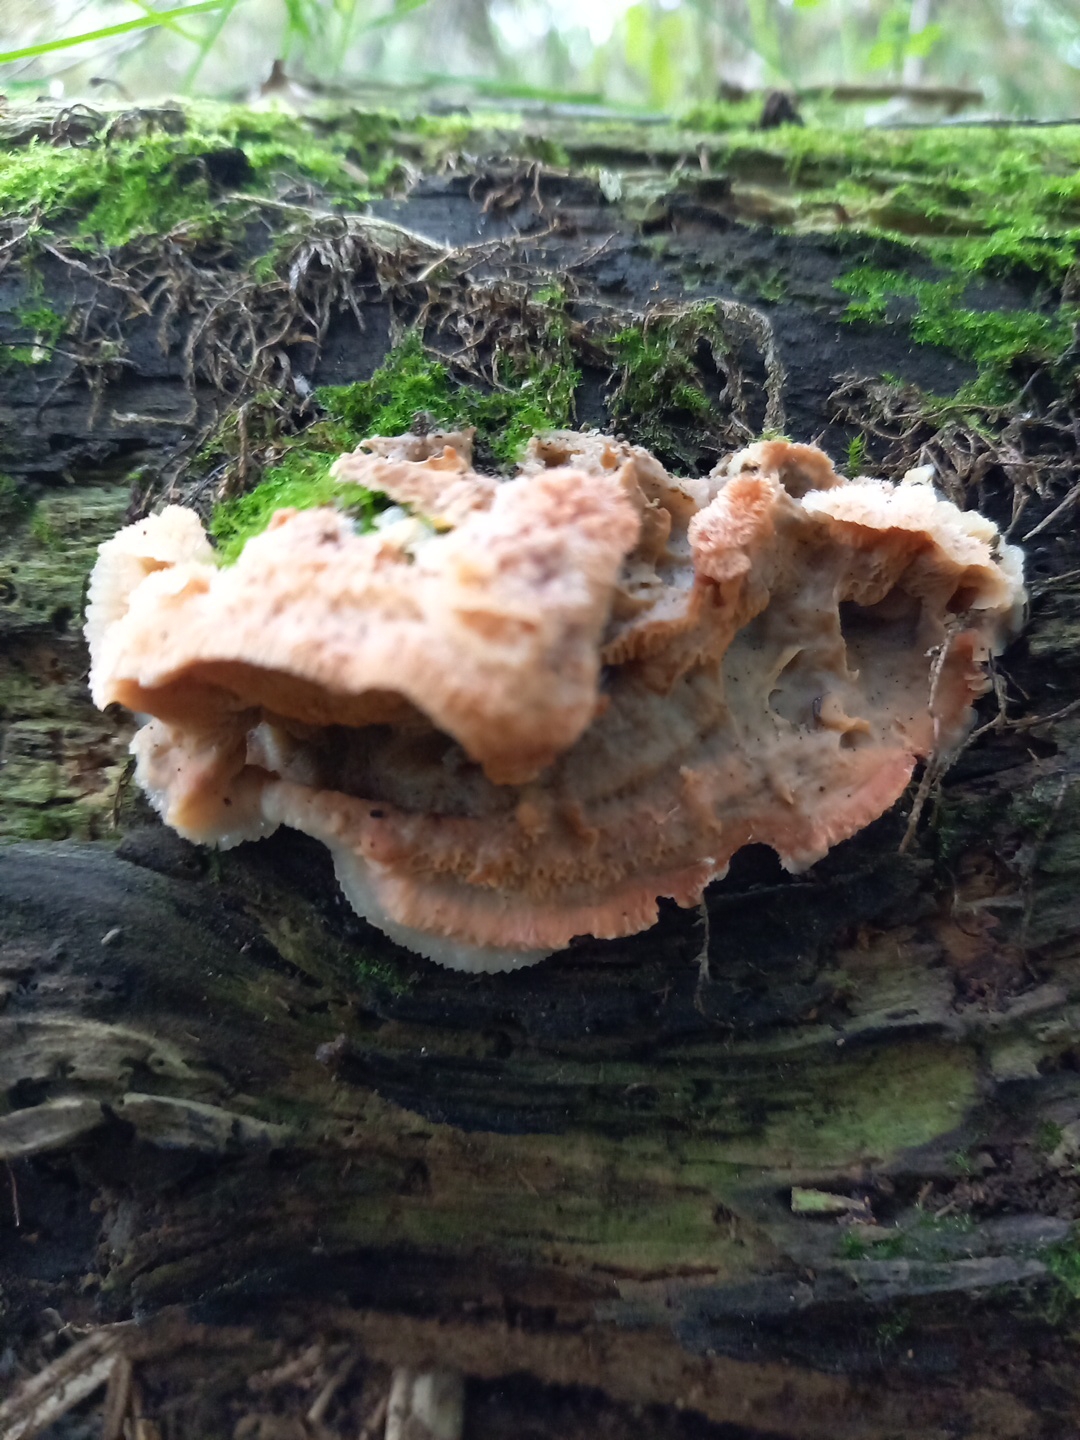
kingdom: Fungi
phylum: Basidiomycota
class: Agaricomycetes
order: Polyporales
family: Meruliaceae
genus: Phlebia
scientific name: Phlebia tremellosa
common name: bævrende åresvamp
